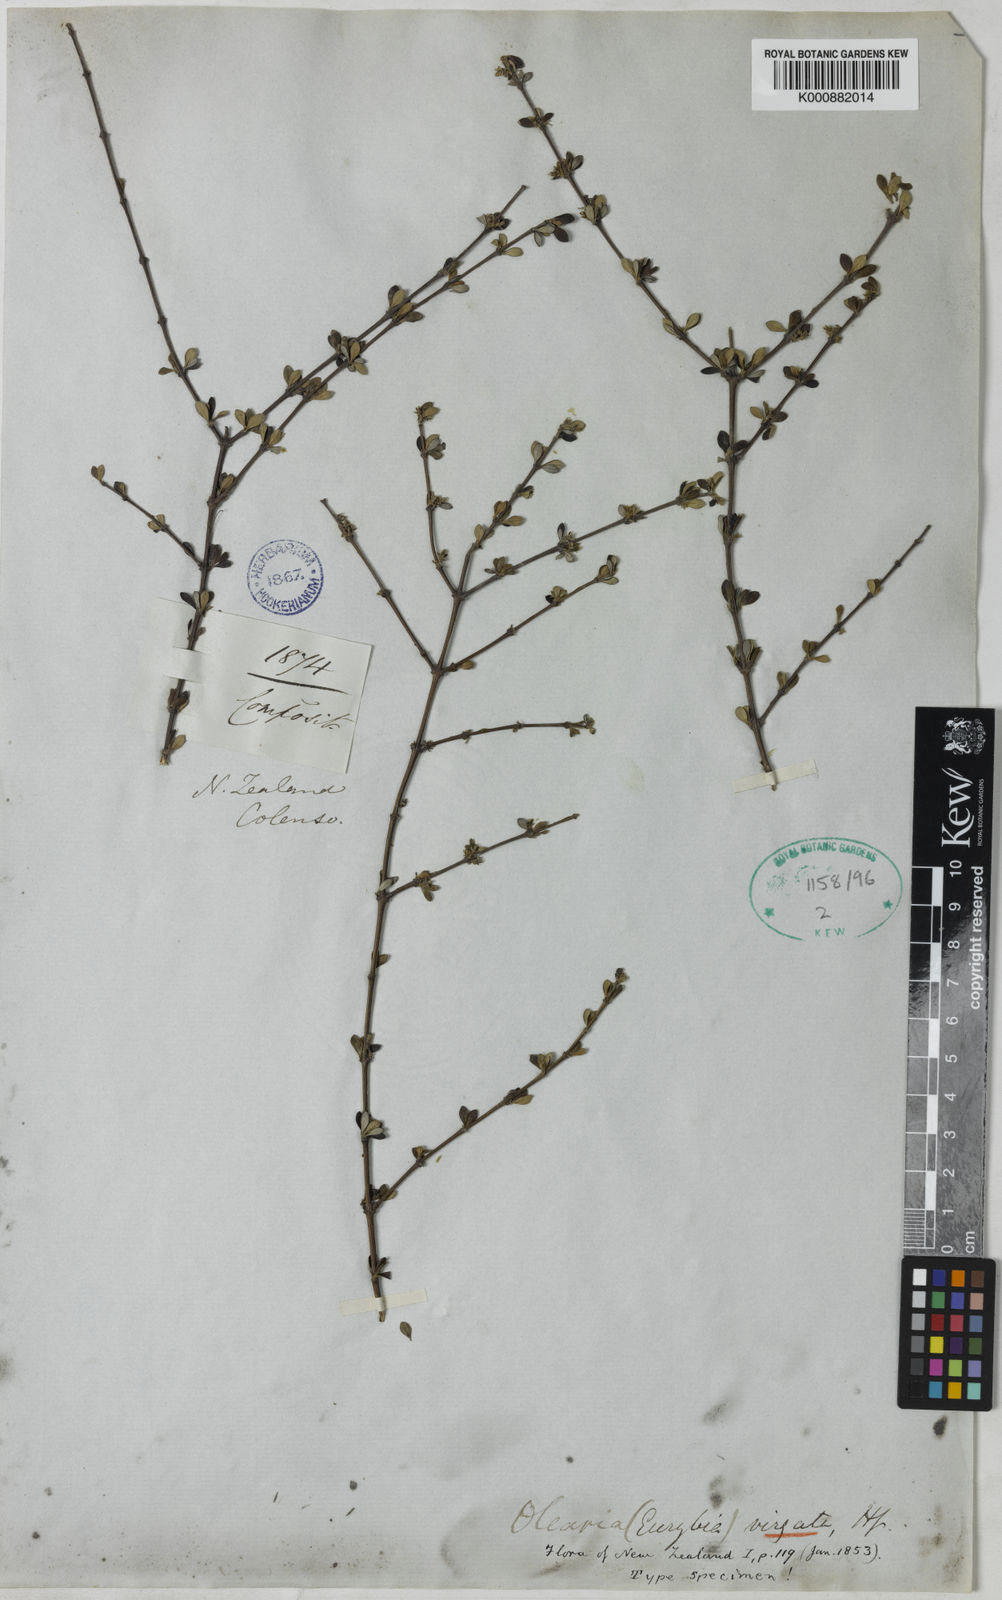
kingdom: Plantae
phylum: Tracheophyta
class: Magnoliopsida
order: Asterales
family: Asteraceae
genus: Olearia
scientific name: Olearia virgata
